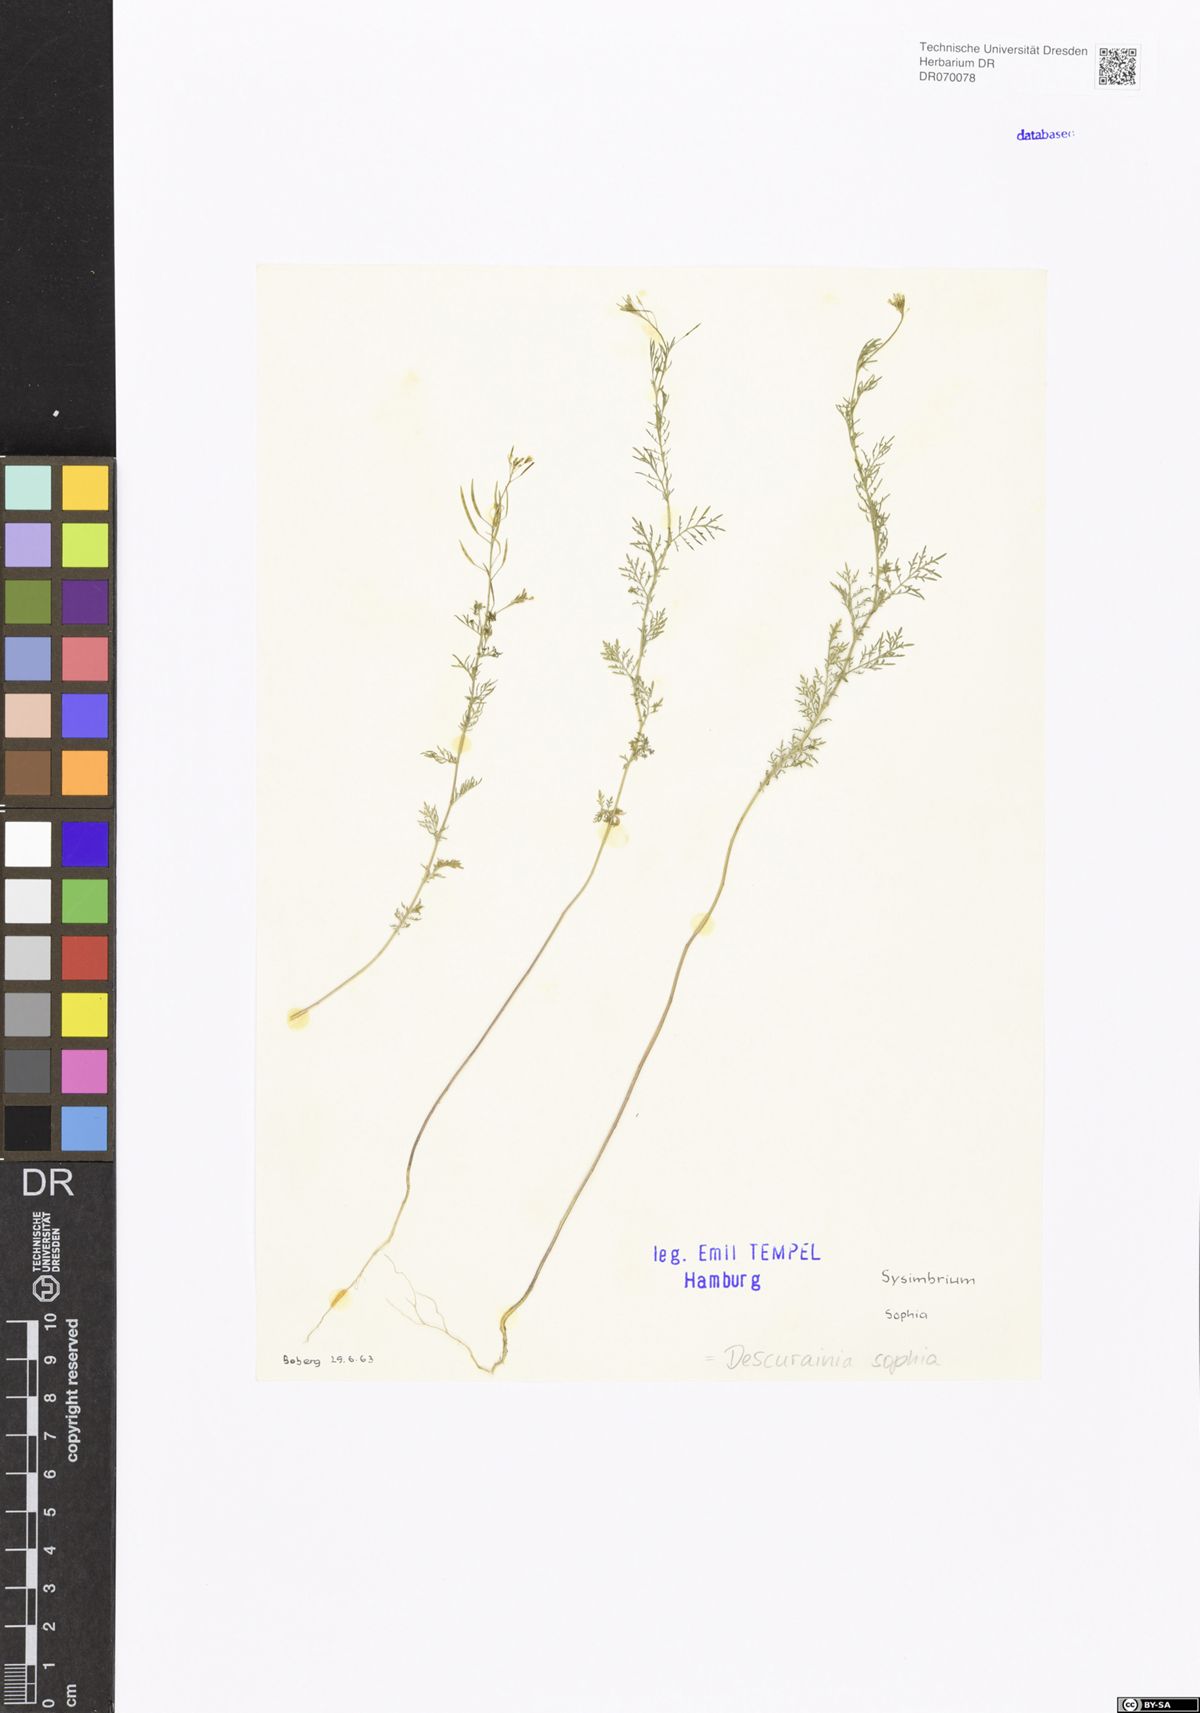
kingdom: Plantae
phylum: Tracheophyta
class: Magnoliopsida
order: Brassicales
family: Brassicaceae
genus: Descurainia
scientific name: Descurainia sophia
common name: Flixweed
